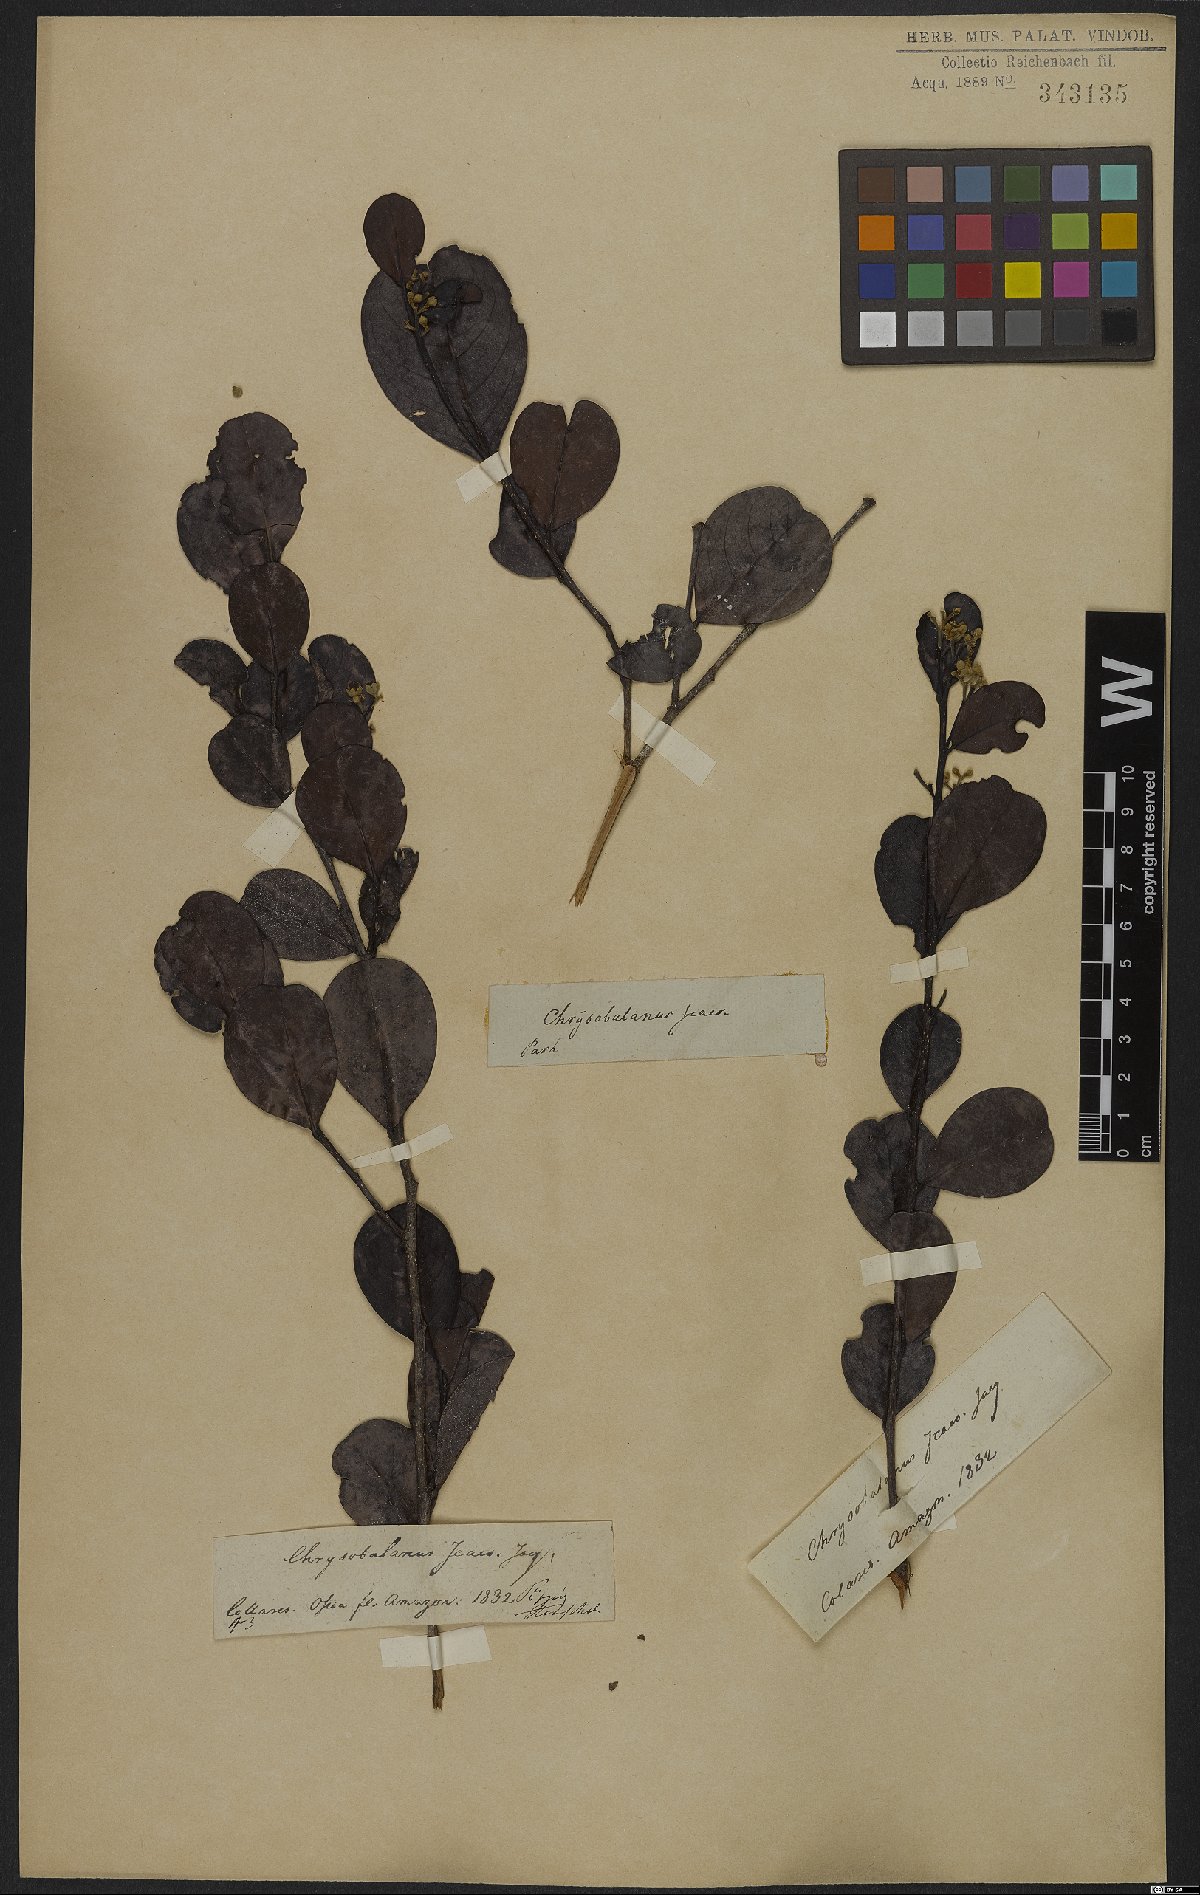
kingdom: Plantae
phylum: Tracheophyta
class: Magnoliopsida
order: Malpighiales
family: Chrysobalanaceae
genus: Chrysobalanus
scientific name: Chrysobalanus icaco
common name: Coco plum
